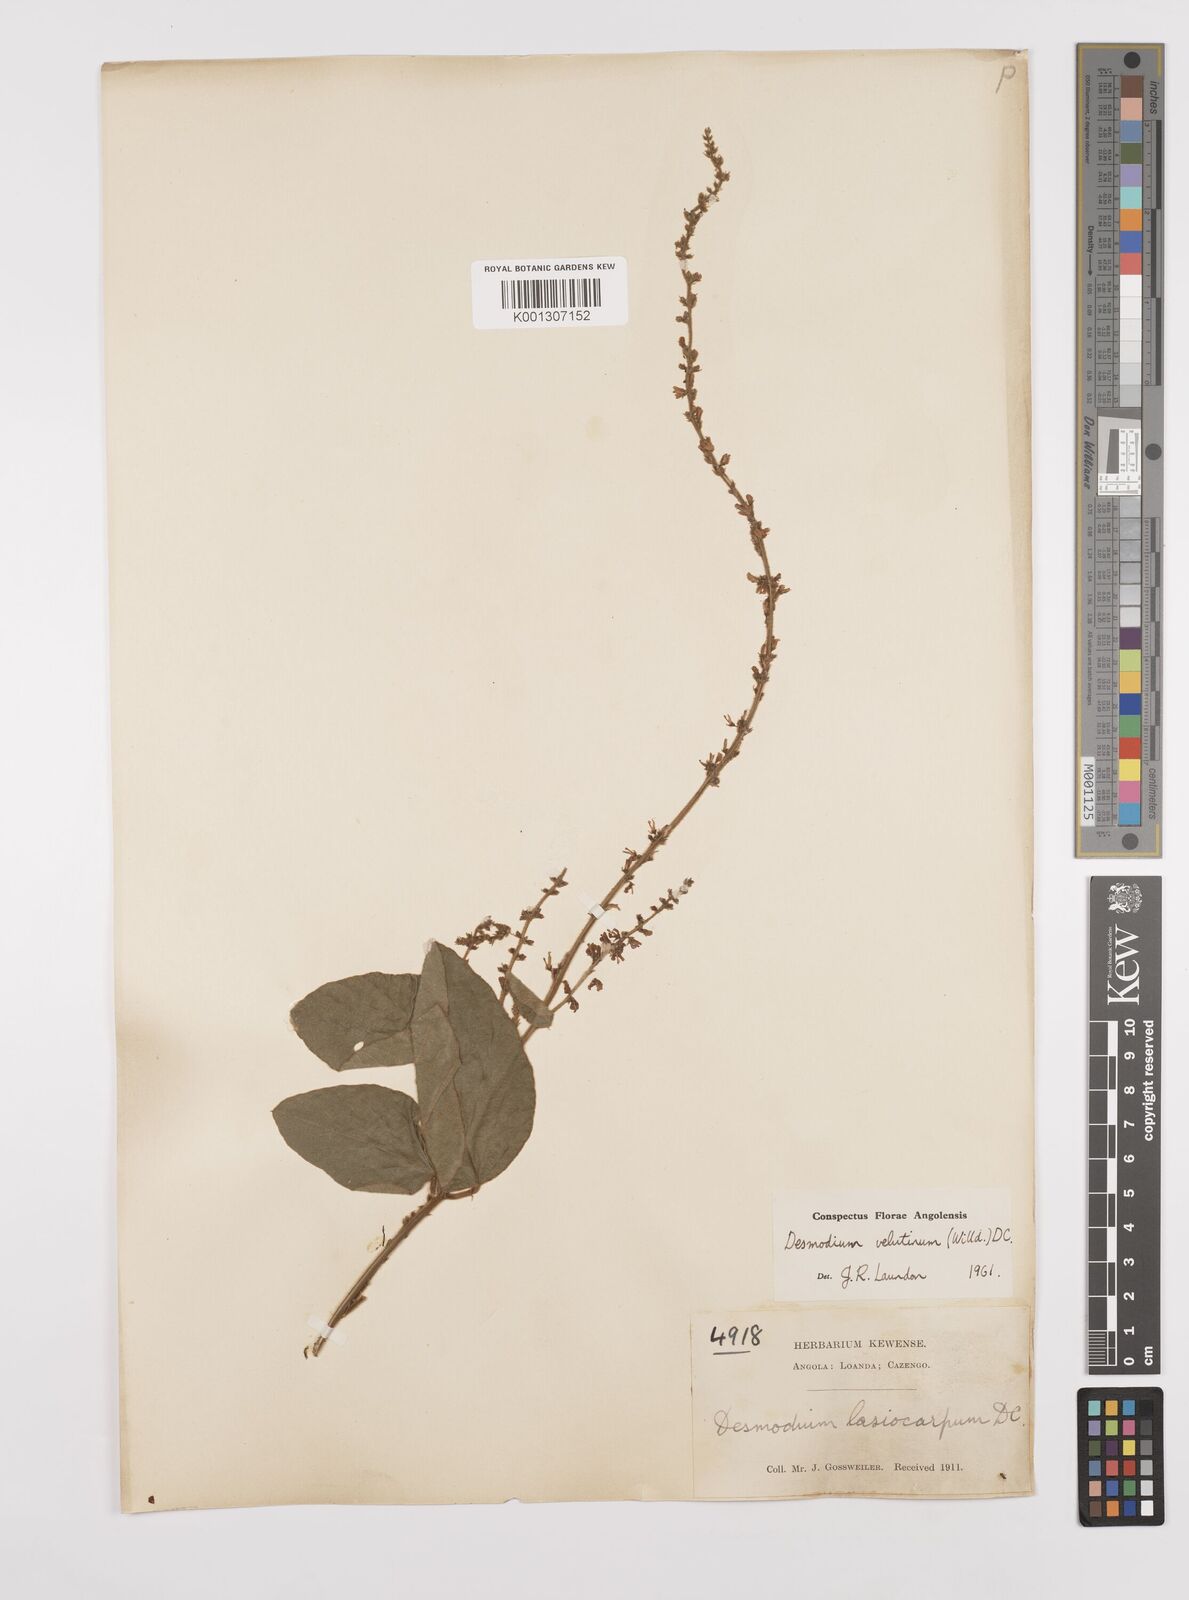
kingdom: Plantae
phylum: Tracheophyta
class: Magnoliopsida
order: Fabales
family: Fabaceae
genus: Polhillides
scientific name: Polhillides velutina
